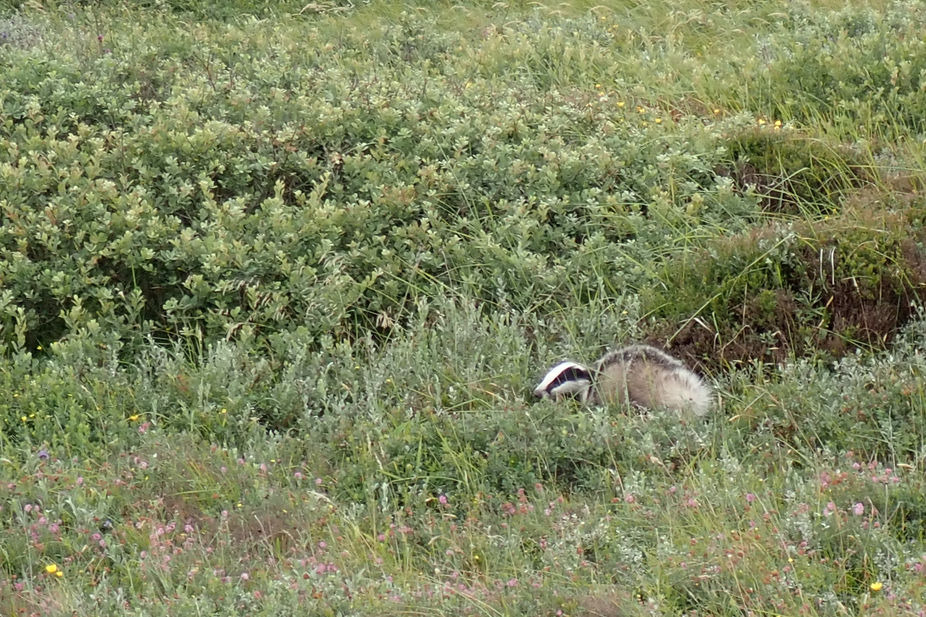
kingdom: Animalia
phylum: Chordata
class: Mammalia
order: Carnivora
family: Mustelidae
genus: Meles
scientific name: Meles meles
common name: Grævling
